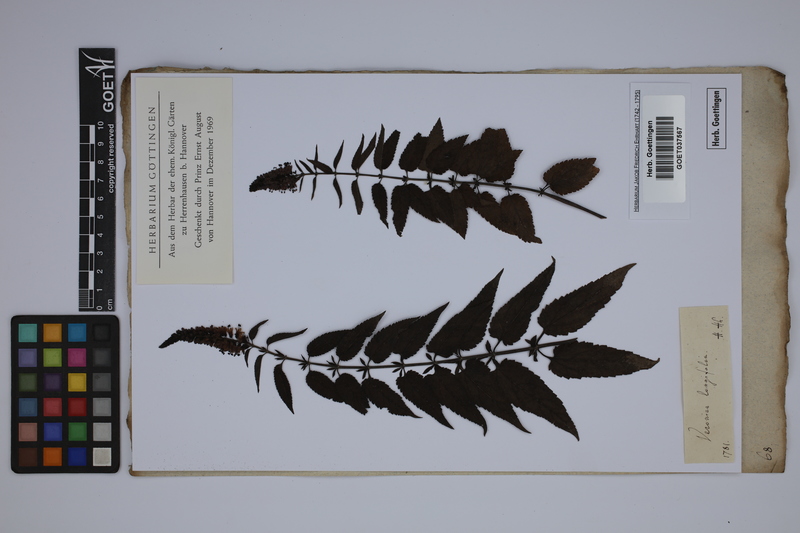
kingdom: Plantae
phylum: Tracheophyta
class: Magnoliopsida
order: Lamiales
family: Plantaginaceae
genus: Veronica
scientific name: Veronica longifolia
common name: Garden speedwell
